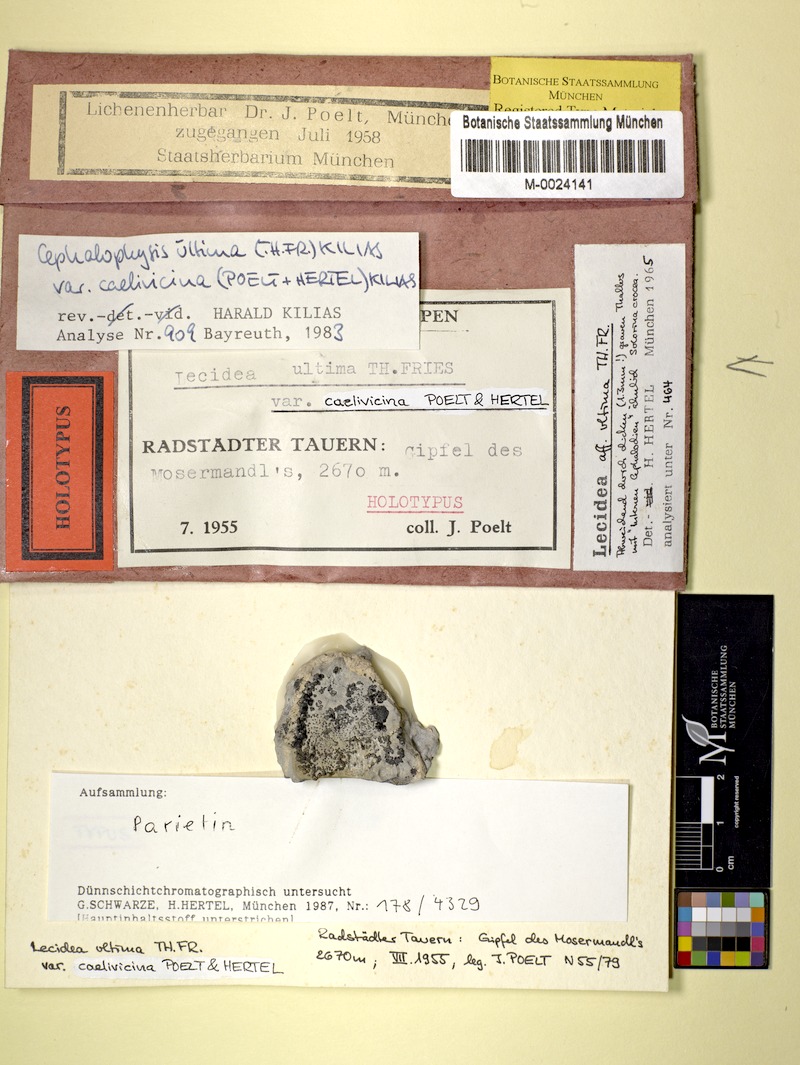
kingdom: Fungi
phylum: Ascomycota
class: Lecanoromycetes
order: Teloschistales
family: Teloschistaceae
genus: Cephalophysis
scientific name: Cephalophysis leucospila
